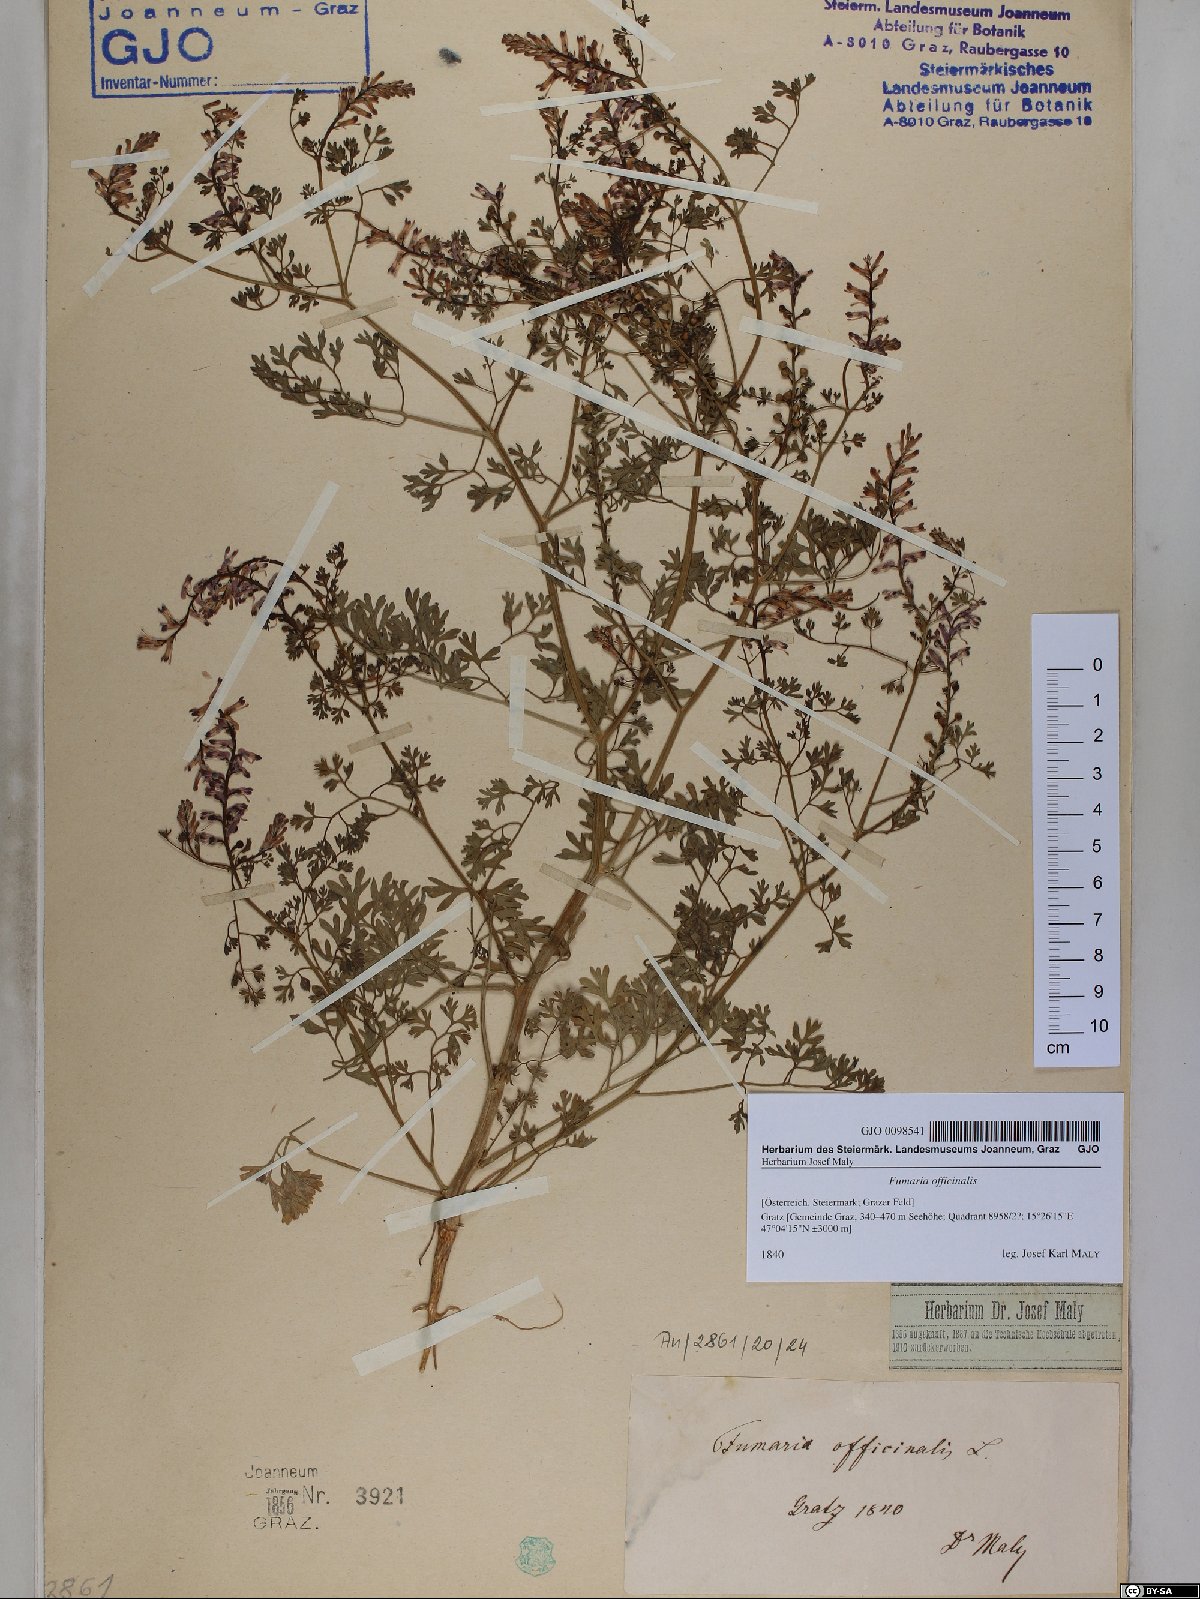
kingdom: Plantae
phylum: Tracheophyta
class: Magnoliopsida
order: Ranunculales
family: Papaveraceae
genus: Fumaria
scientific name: Fumaria officinalis
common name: Common fumitory
